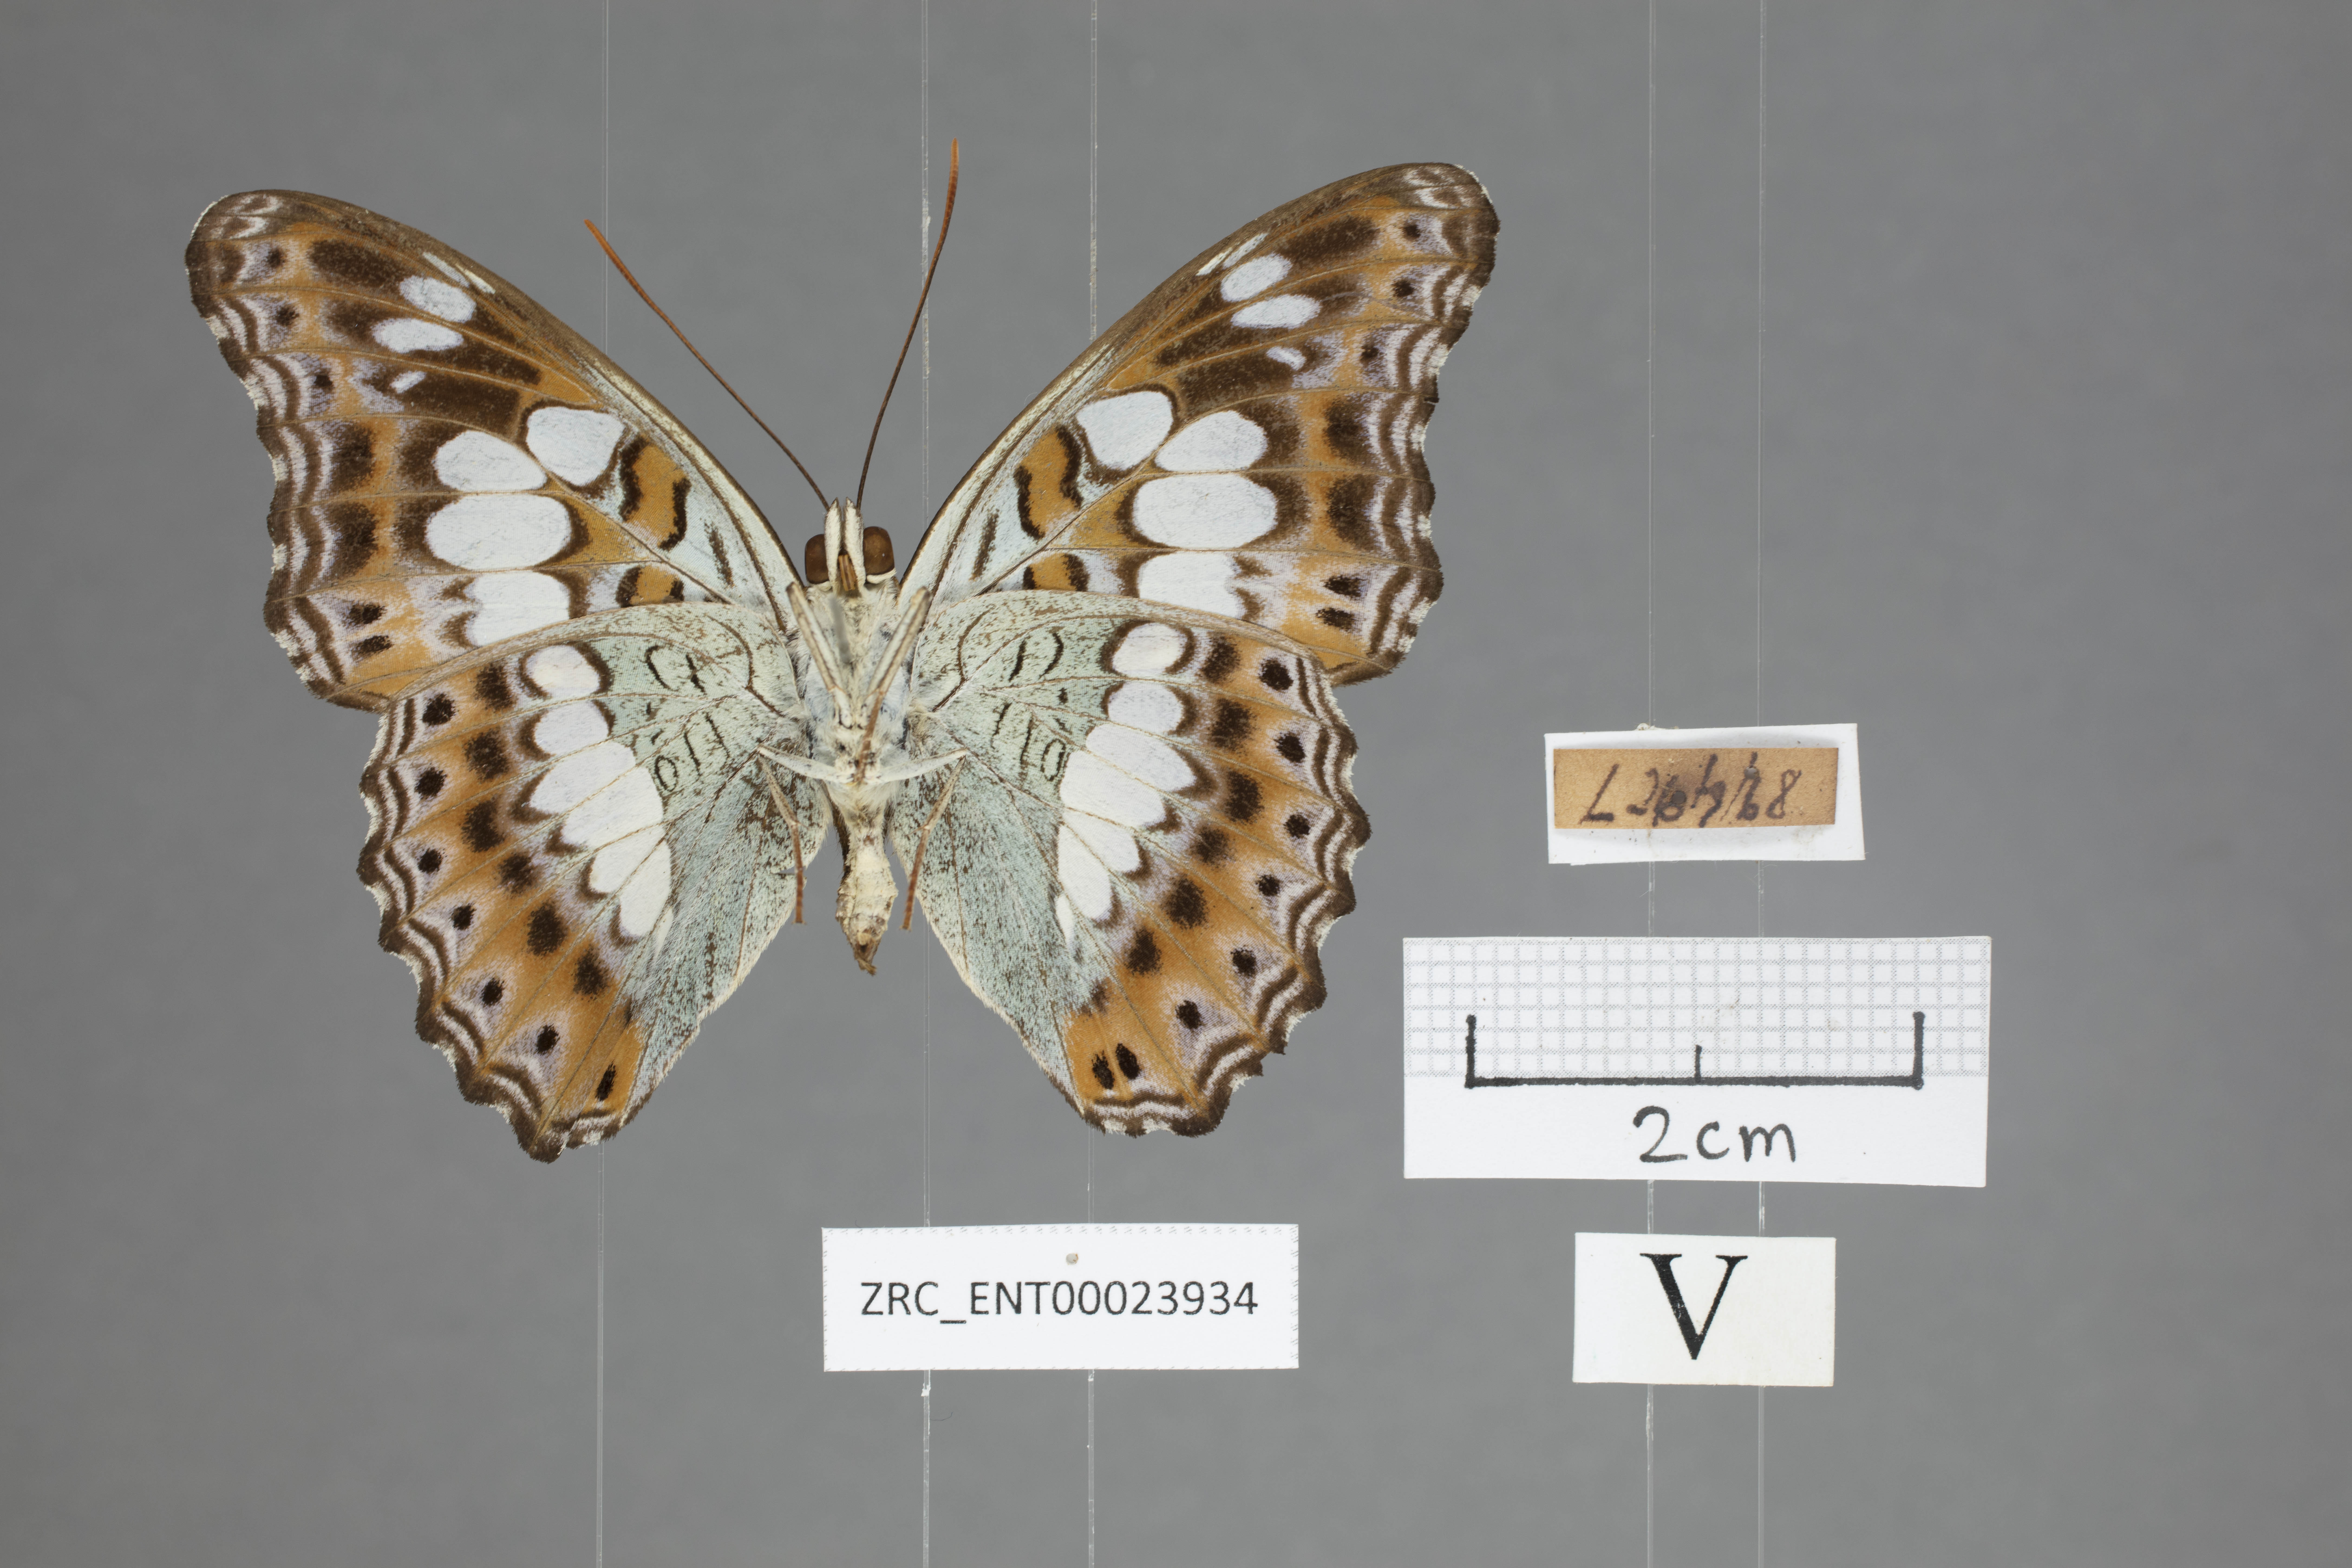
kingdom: Animalia
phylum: Arthropoda
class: Insecta
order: Lepidoptera
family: Nymphalidae
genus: Limenitis
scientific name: Limenitis Moduza procris
